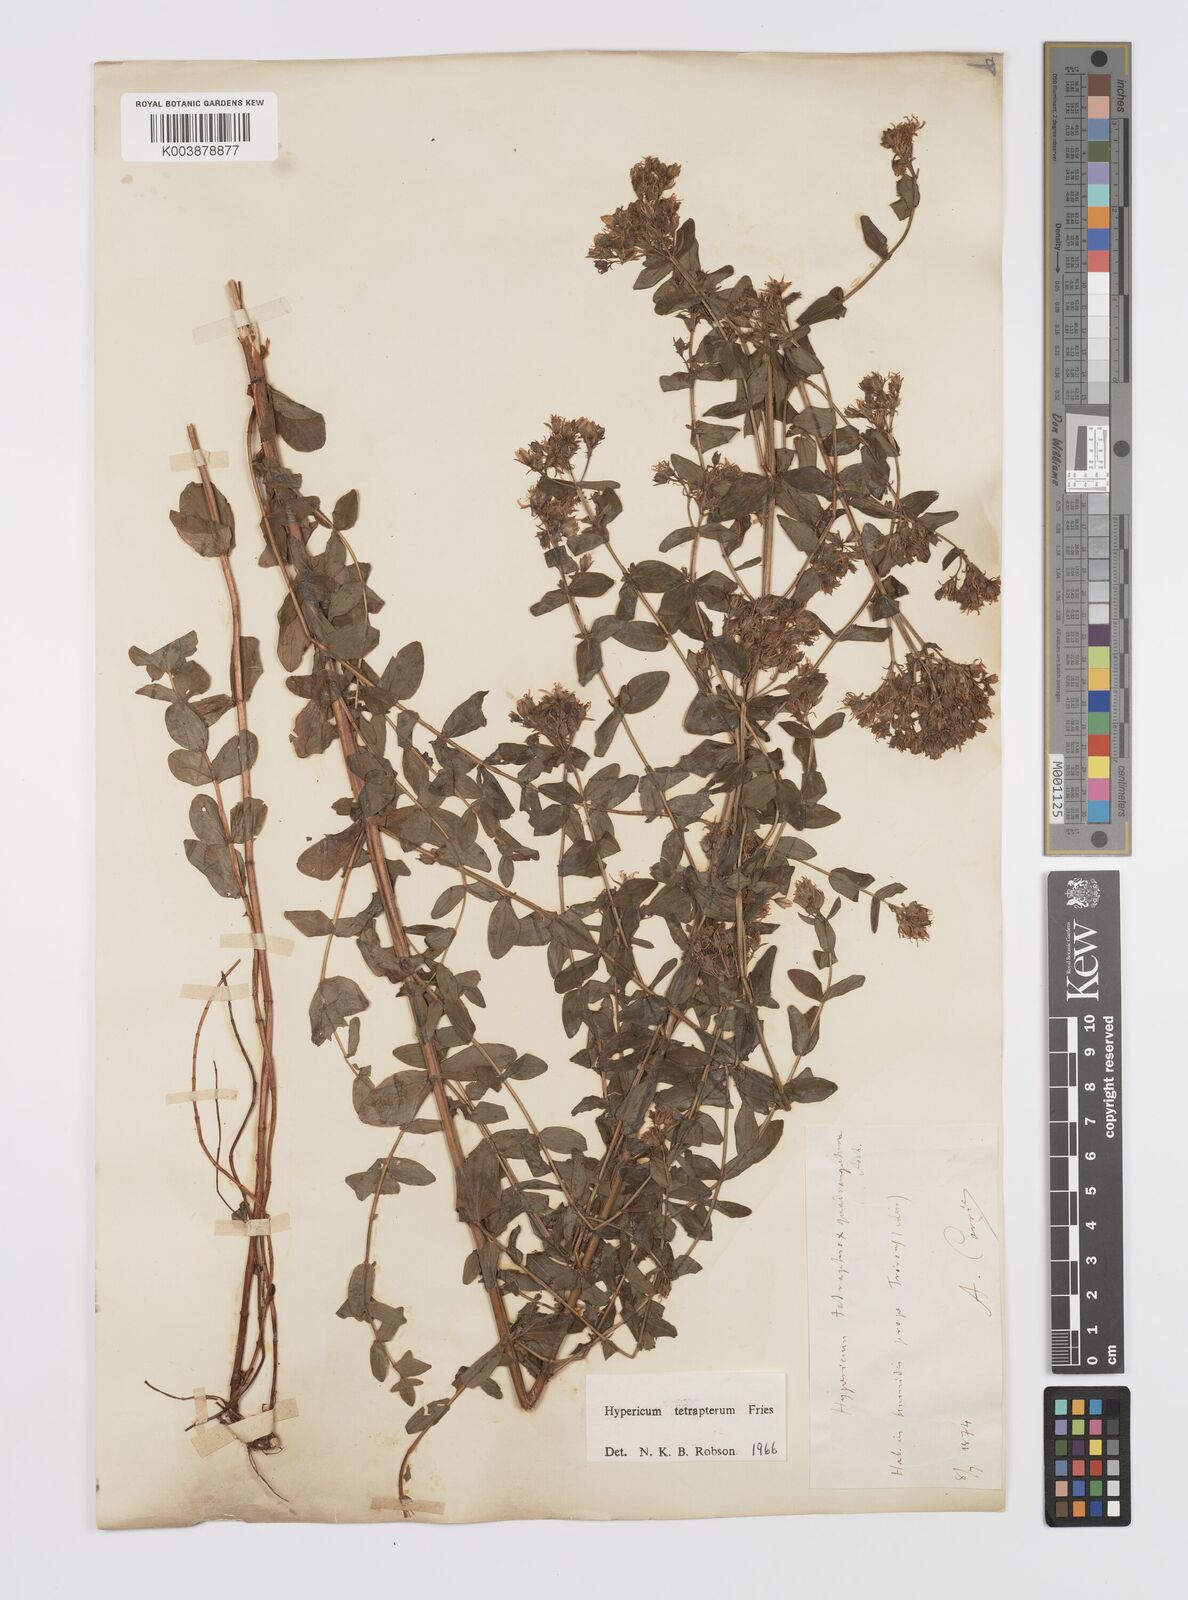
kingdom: Plantae
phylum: Tracheophyta
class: Magnoliopsida
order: Malpighiales
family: Hypericaceae
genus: Hypericum
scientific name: Hypericum tetrapterum
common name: Square-stalked st. john's-wort
